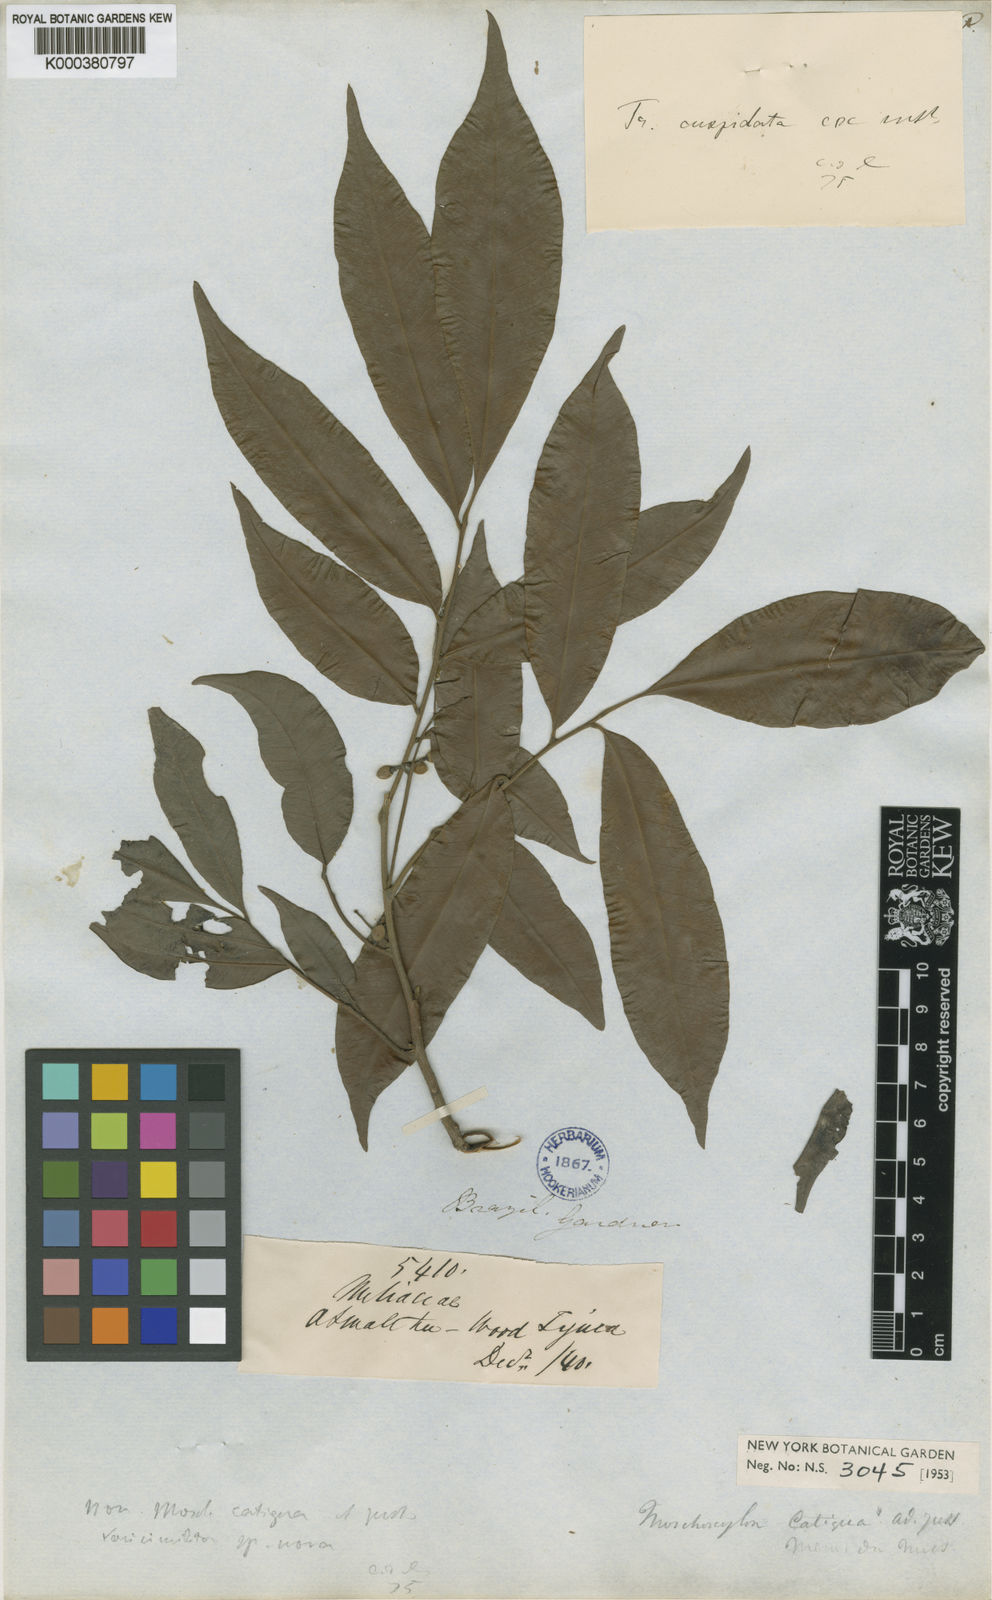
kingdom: Plantae
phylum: Tracheophyta
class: Magnoliopsida
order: Sapindales
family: Meliaceae
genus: Trichilia
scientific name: Trichilia silvatica
